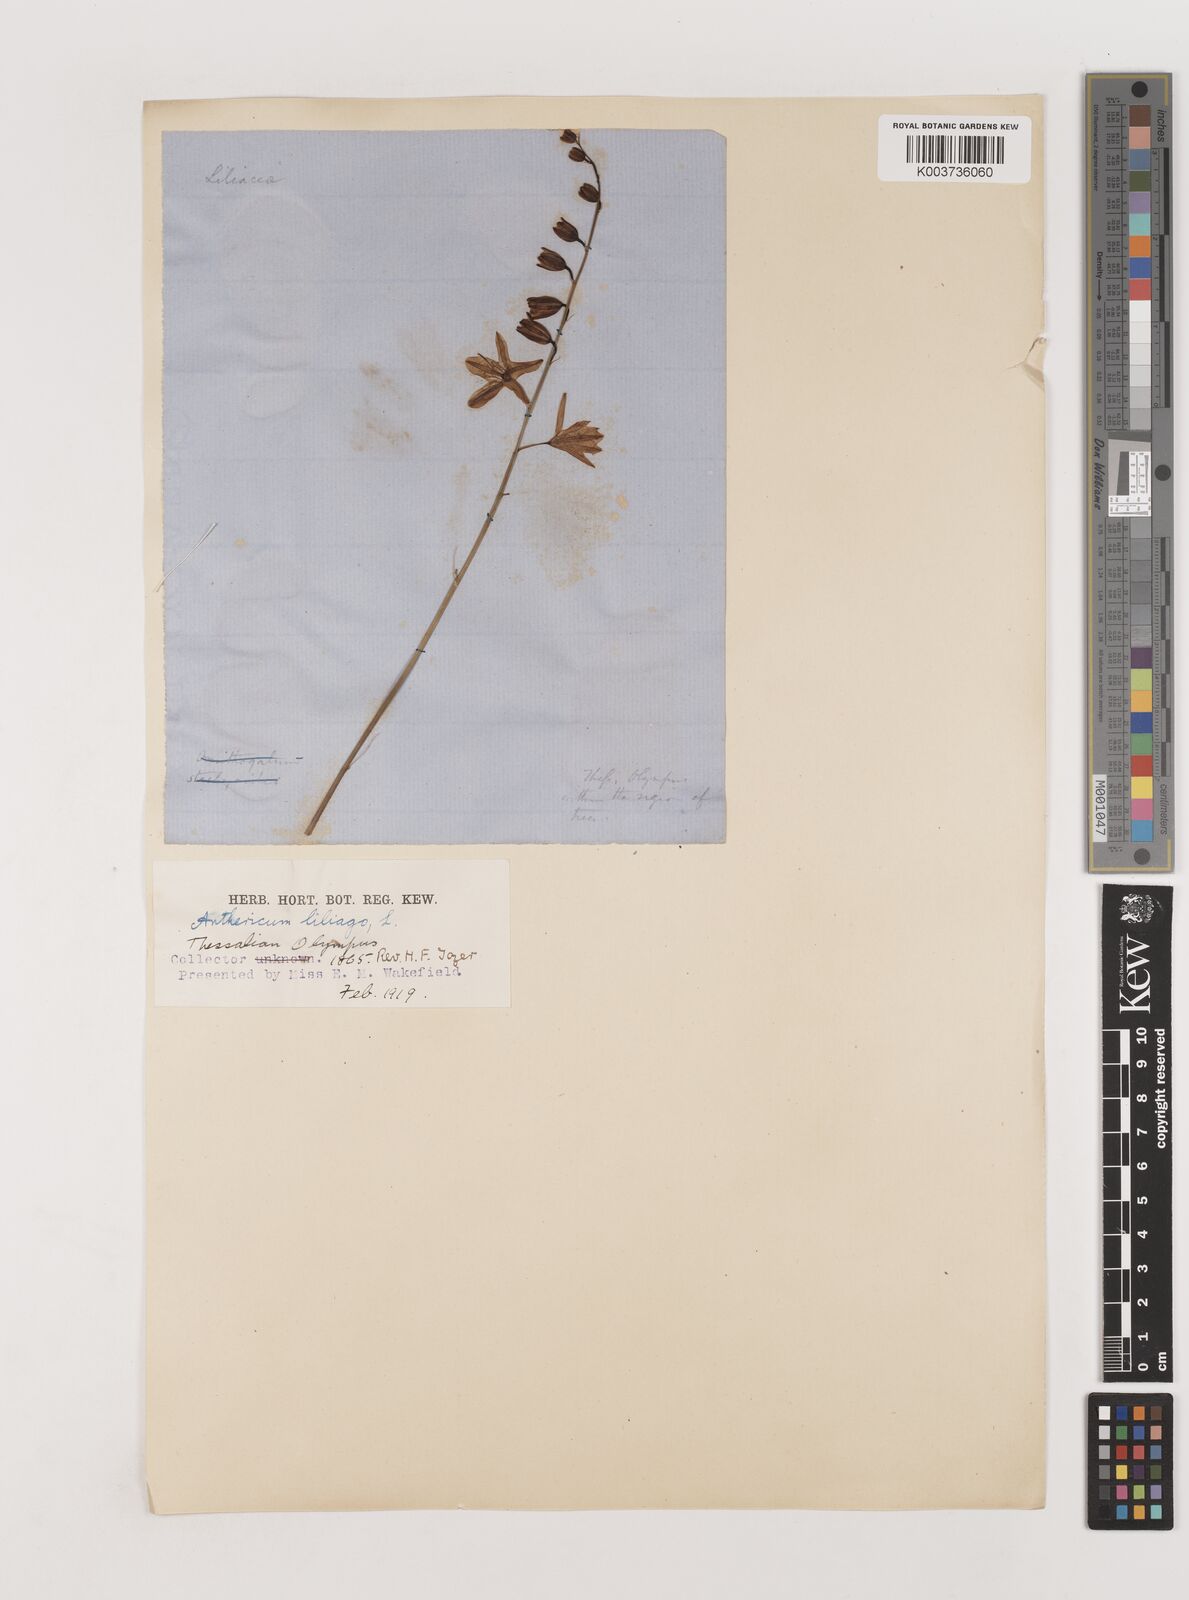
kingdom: Plantae
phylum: Tracheophyta
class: Liliopsida
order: Asparagales
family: Asparagaceae
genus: Anthericum
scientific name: Anthericum liliago
